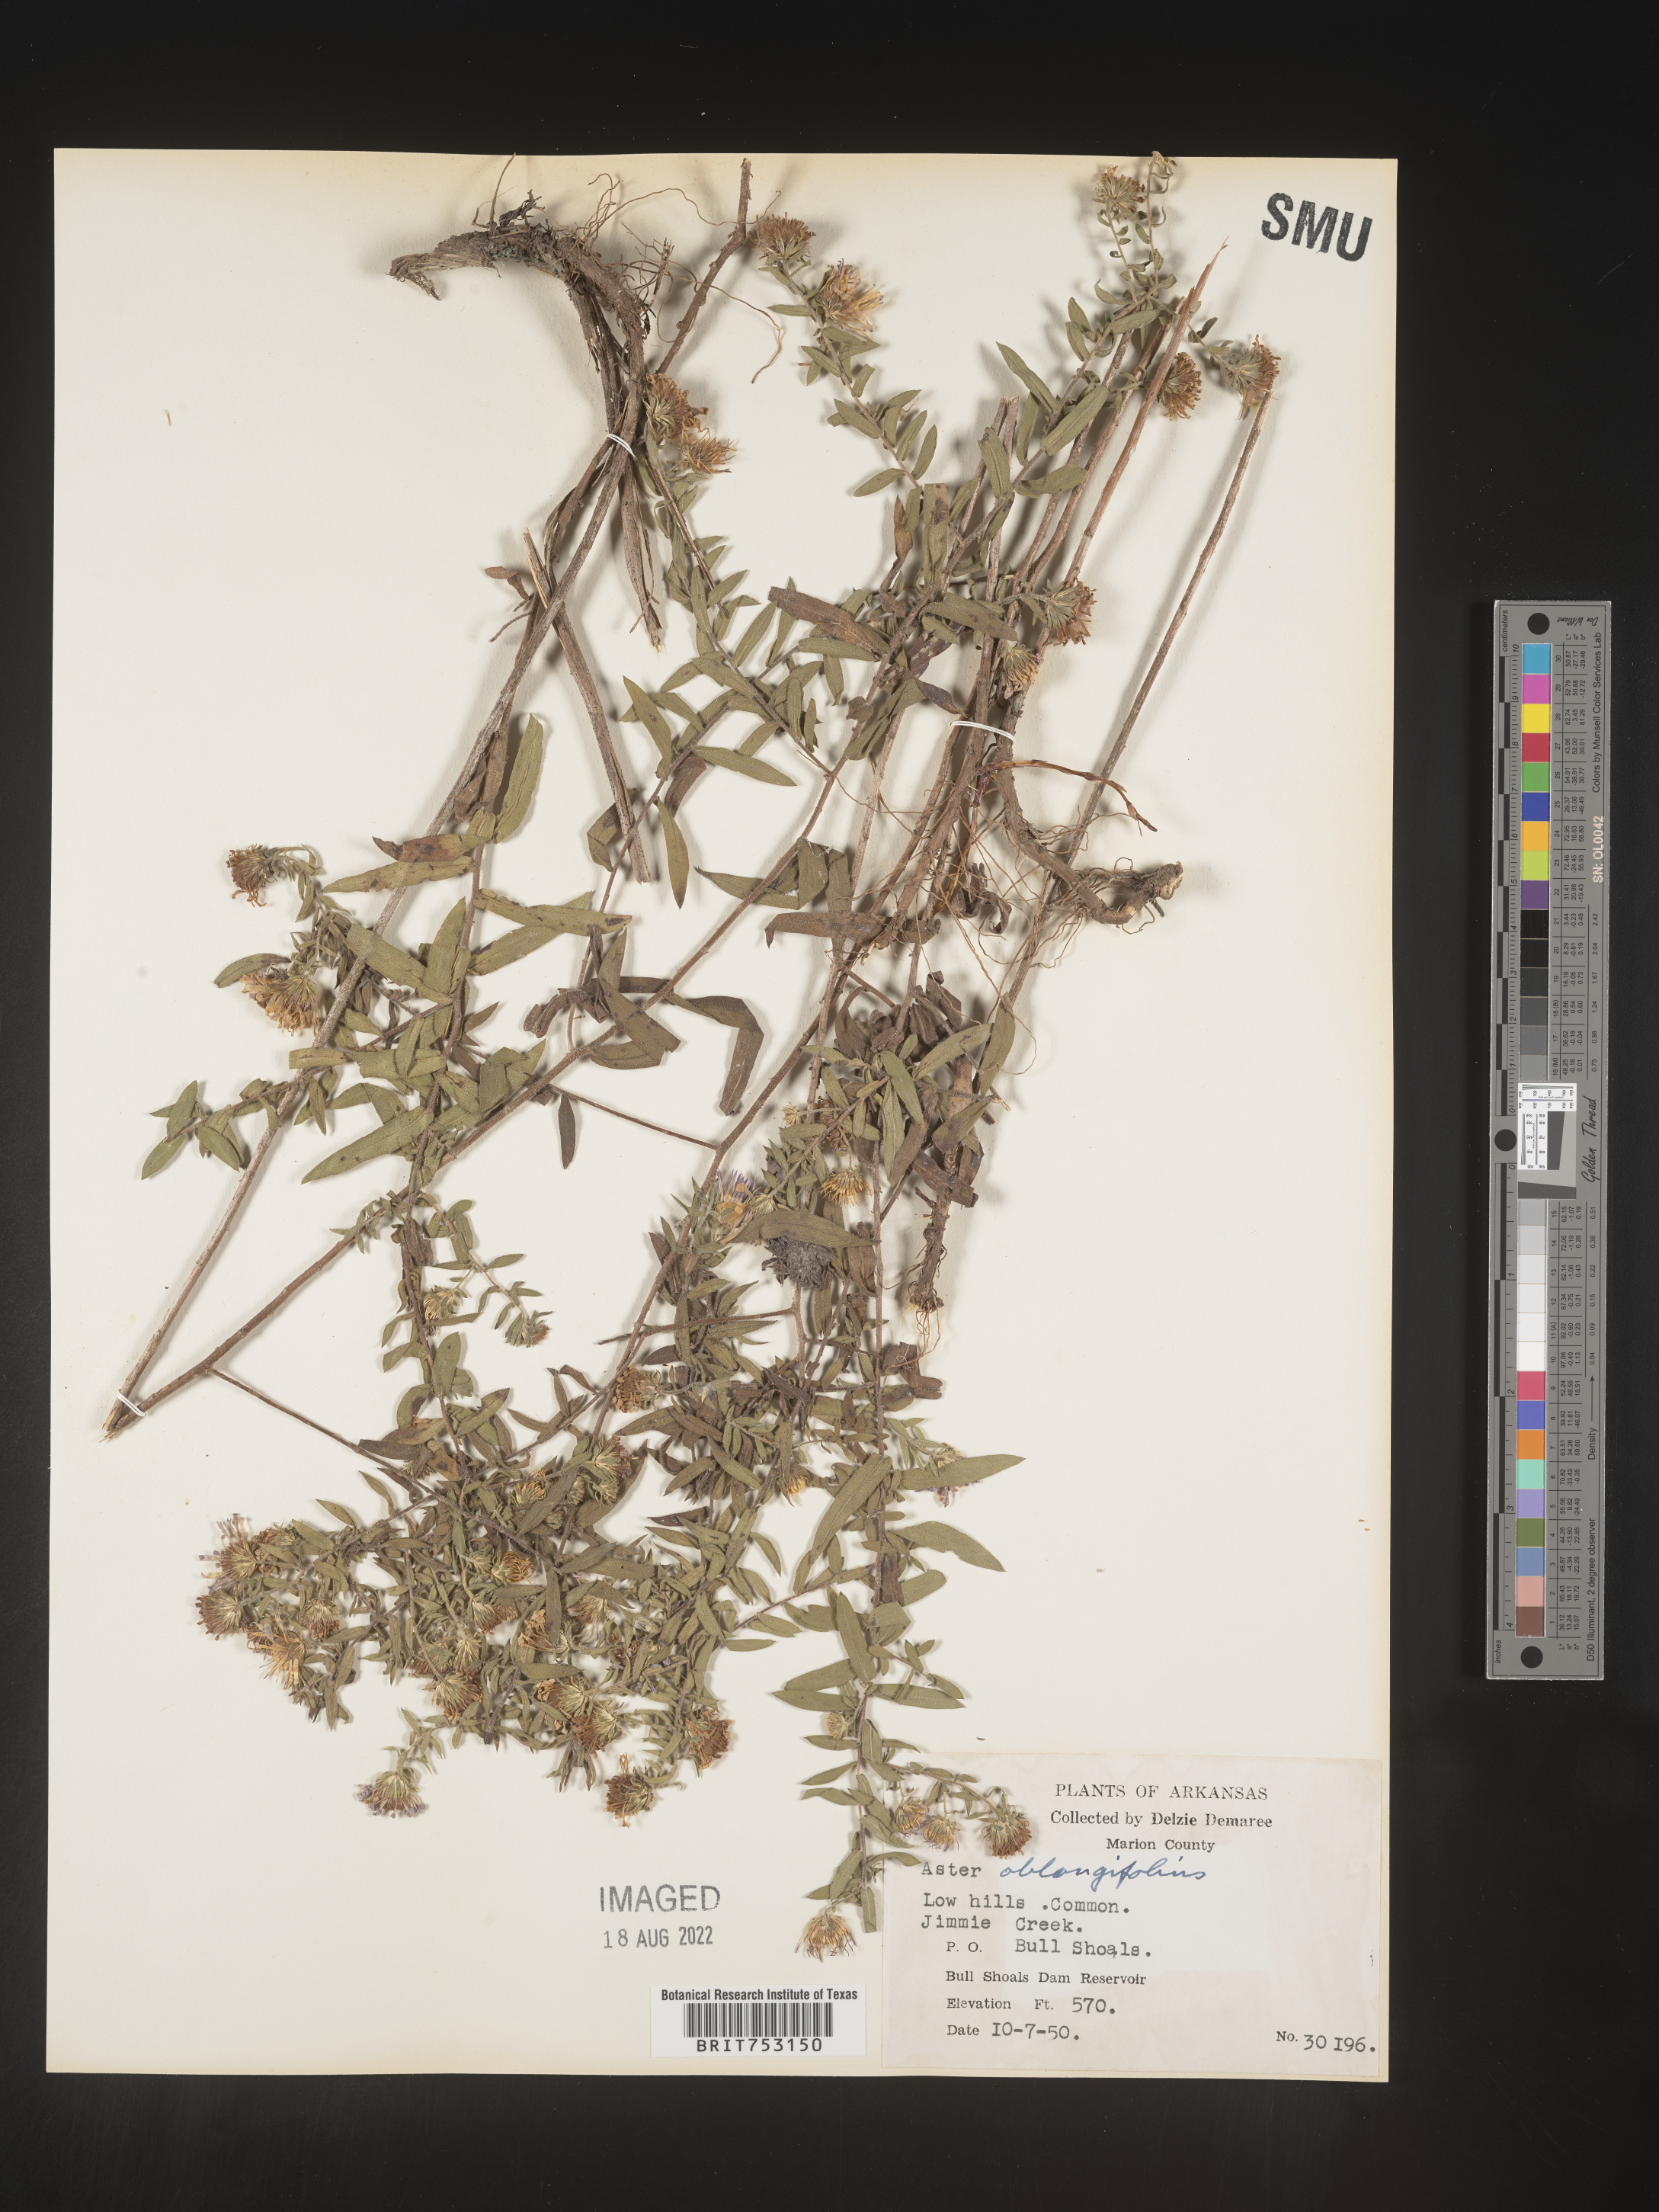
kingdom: Plantae
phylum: Tracheophyta
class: Magnoliopsida
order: Asterales
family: Asteraceae
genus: Symphyotrichum
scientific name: Symphyotrichum oblongifolium
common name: Aromatic aster
